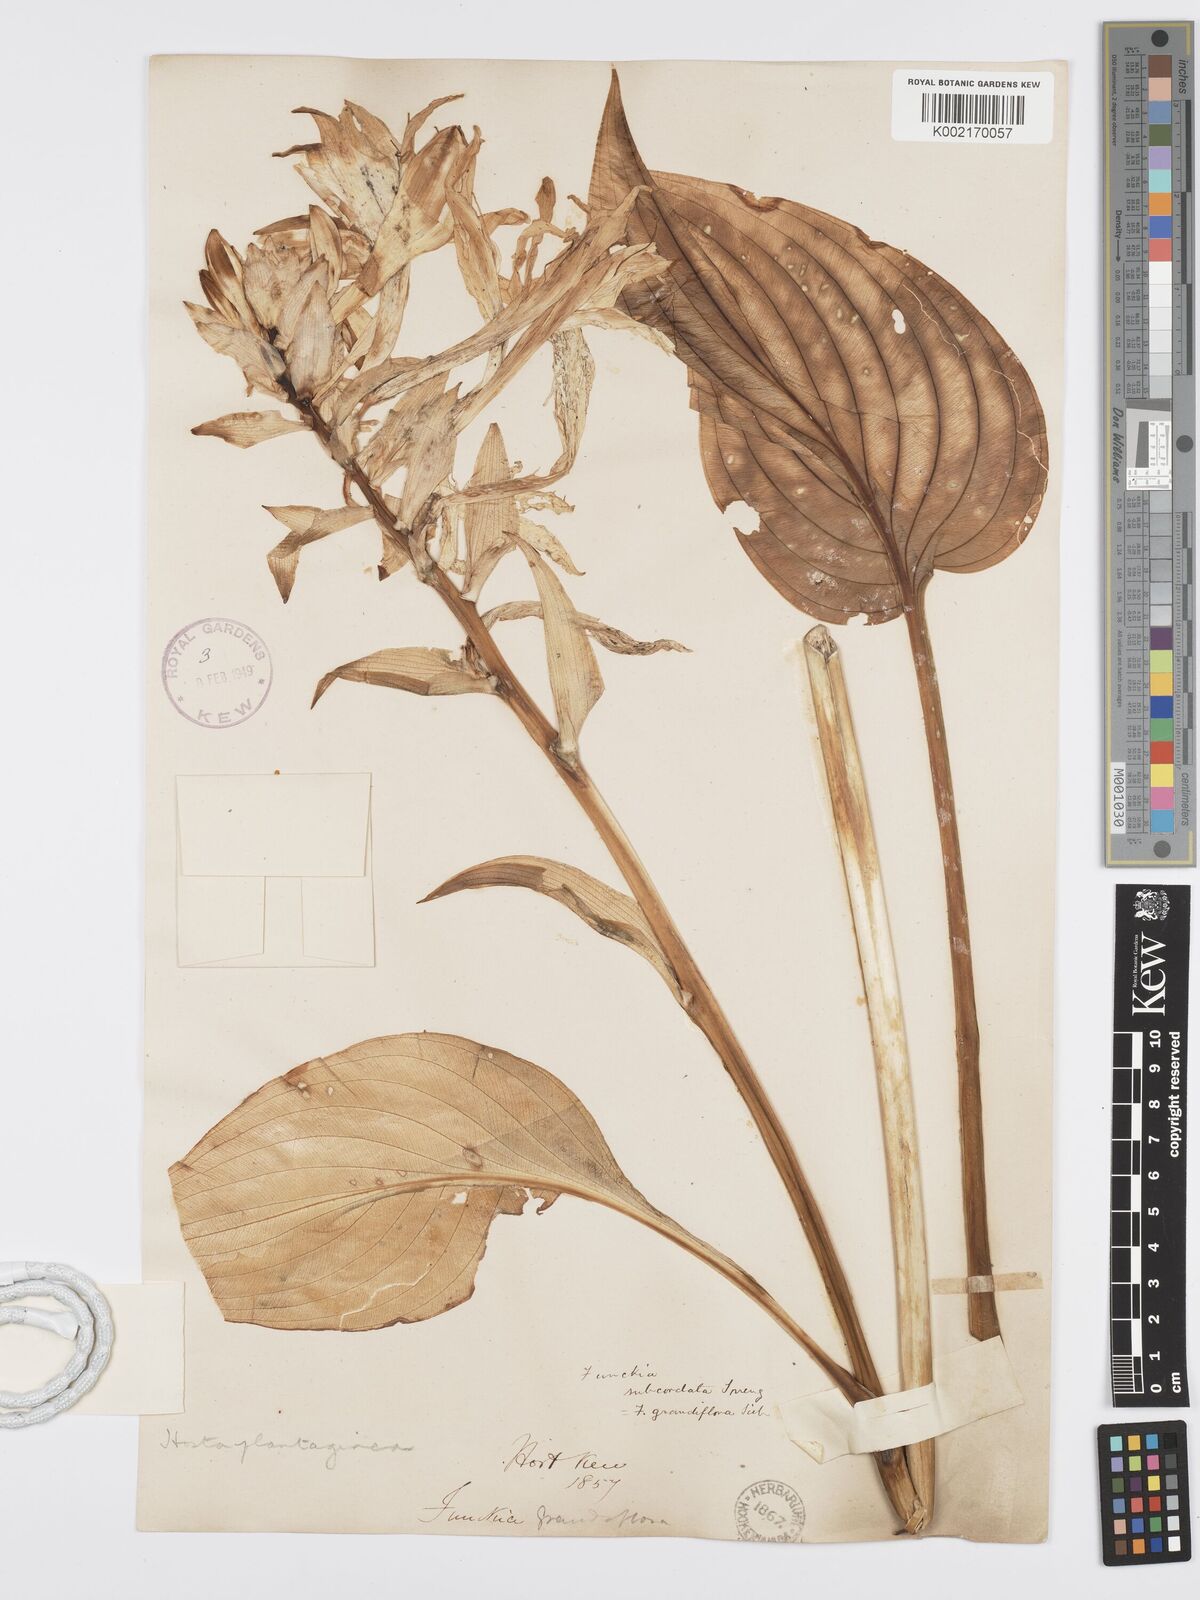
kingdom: Plantae
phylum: Tracheophyta
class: Liliopsida
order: Asparagales
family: Asparagaceae
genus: Hosta
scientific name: Hosta plantaginea
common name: August-lily
